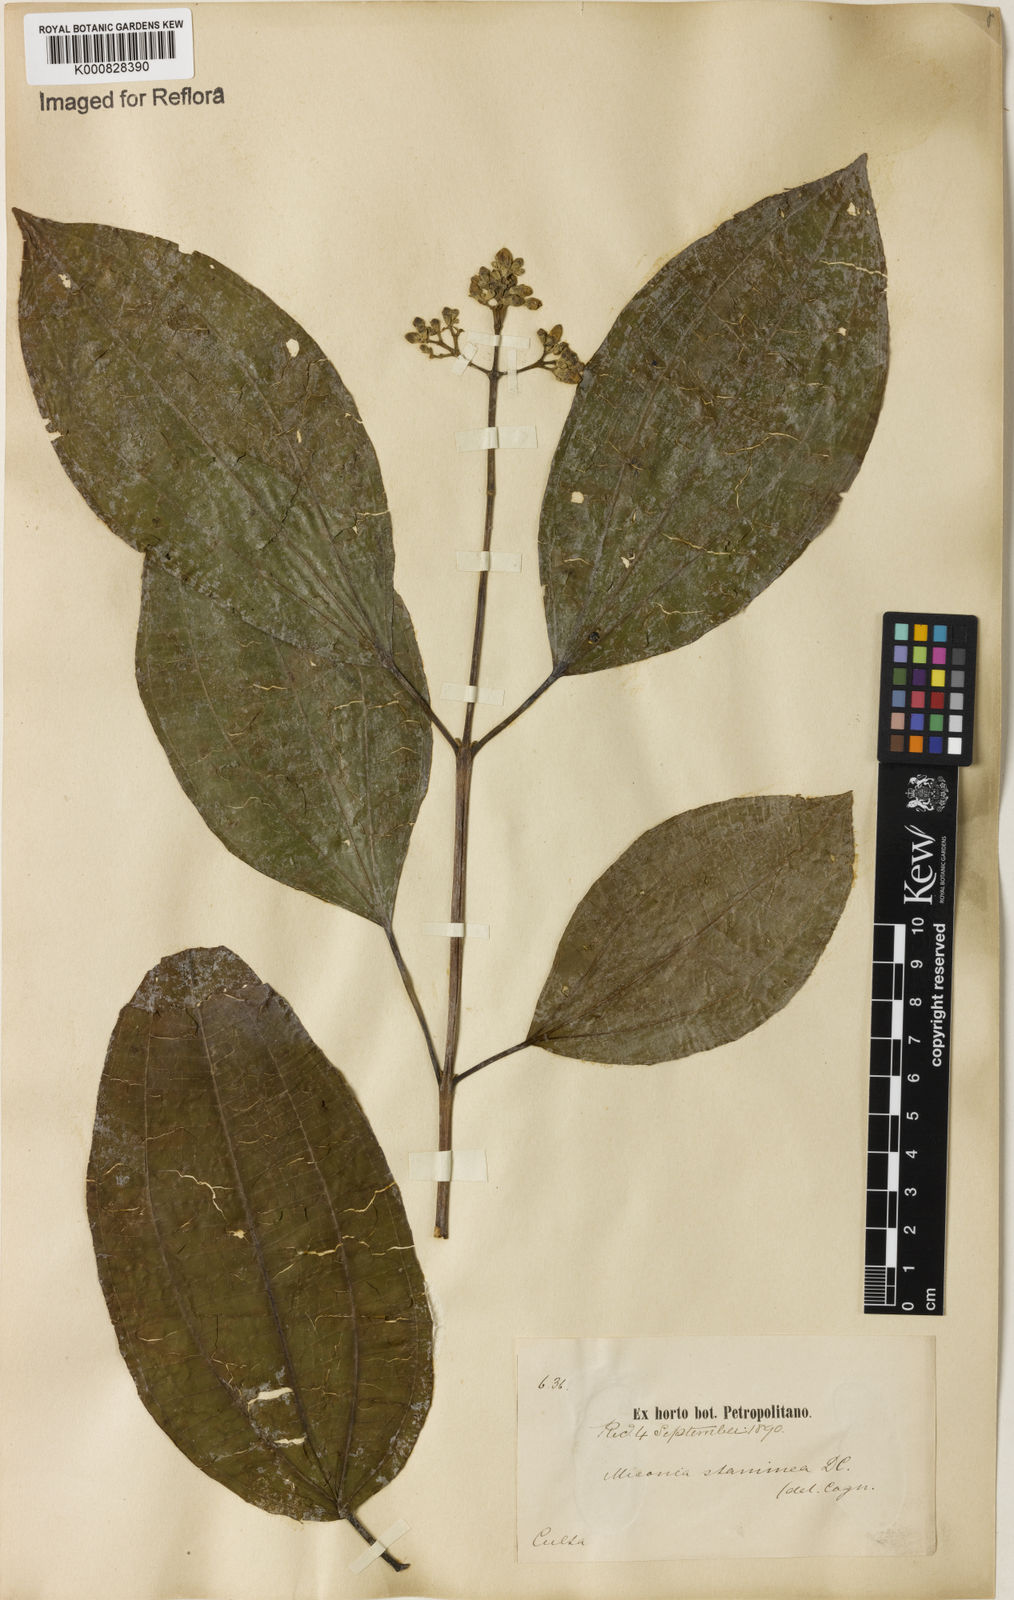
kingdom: Plantae
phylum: Tracheophyta
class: Magnoliopsida
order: Myrtales
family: Melastomataceae
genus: Miconia
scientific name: Miconia staminea
